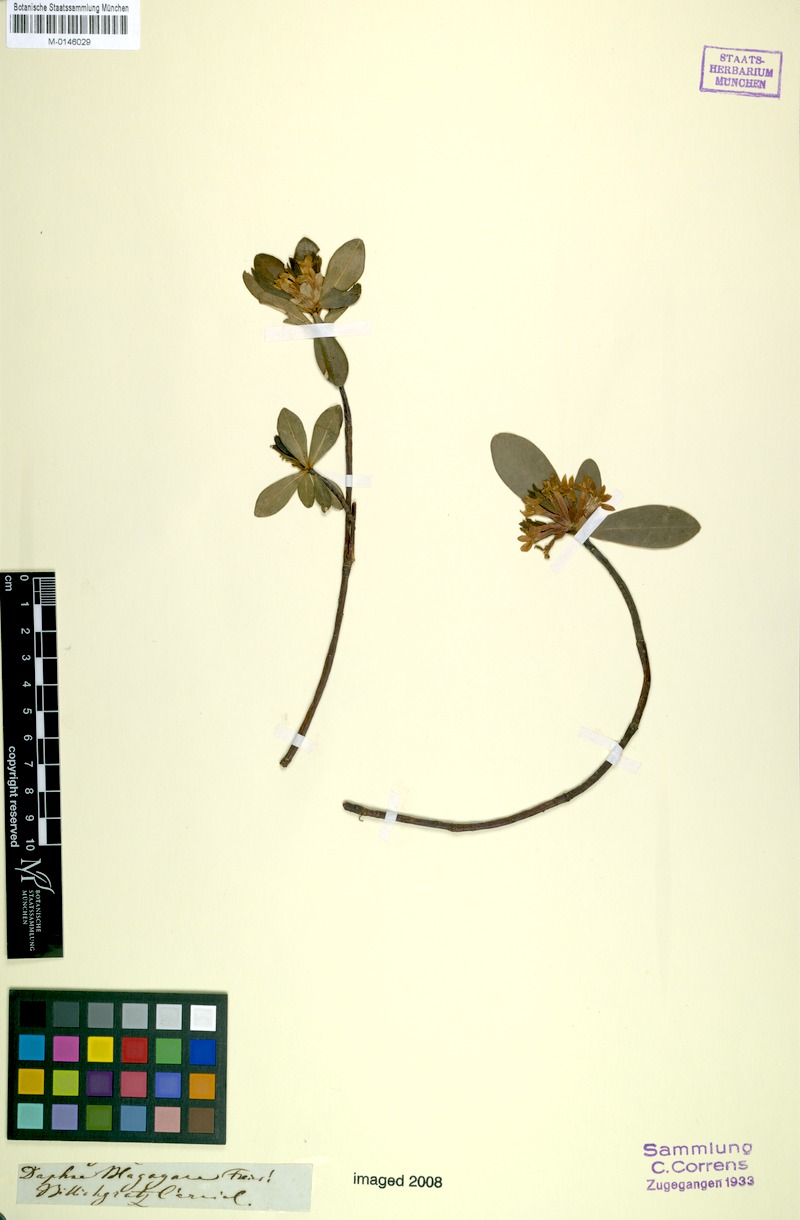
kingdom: Plantae
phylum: Tracheophyta
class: Magnoliopsida
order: Malvales
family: Thymelaeaceae
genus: Daphne
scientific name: Daphne blagayana
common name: Balkan daphne
